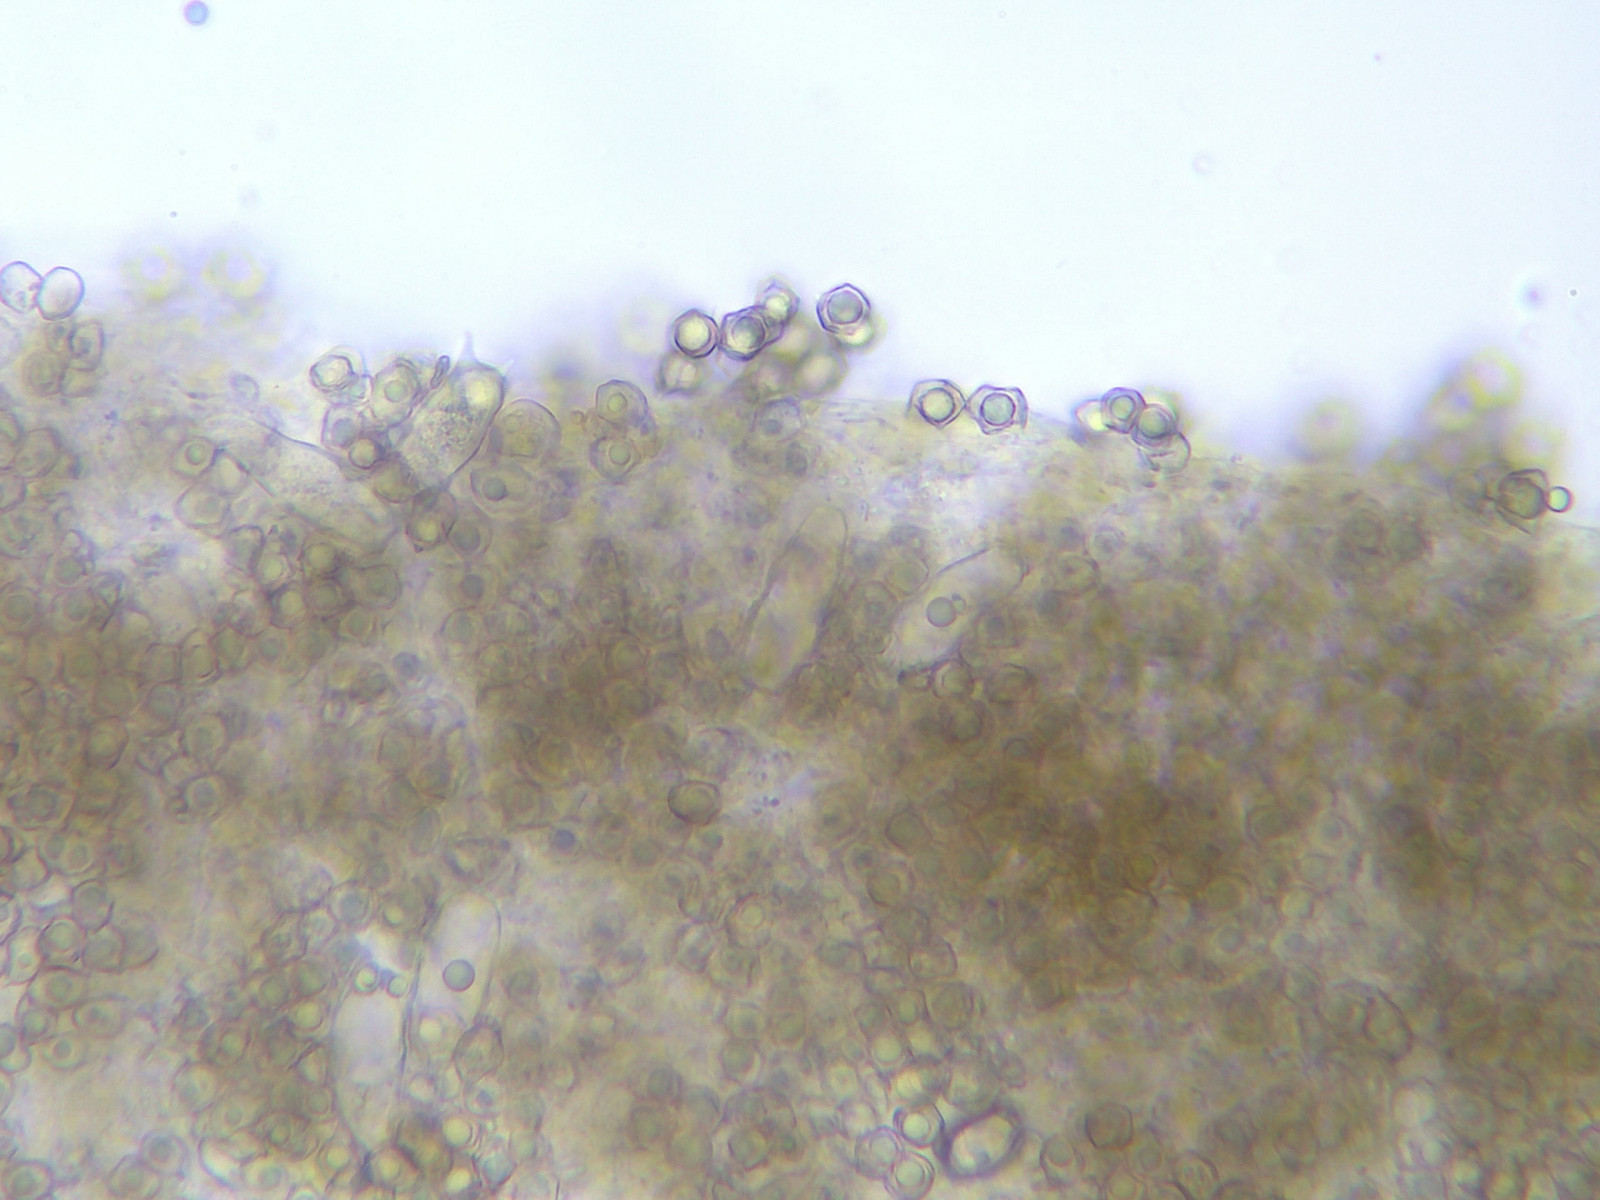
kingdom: Fungi
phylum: Basidiomycota
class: Agaricomycetes
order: Agaricales
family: Entolomataceae
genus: Entoloma
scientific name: Entoloma
